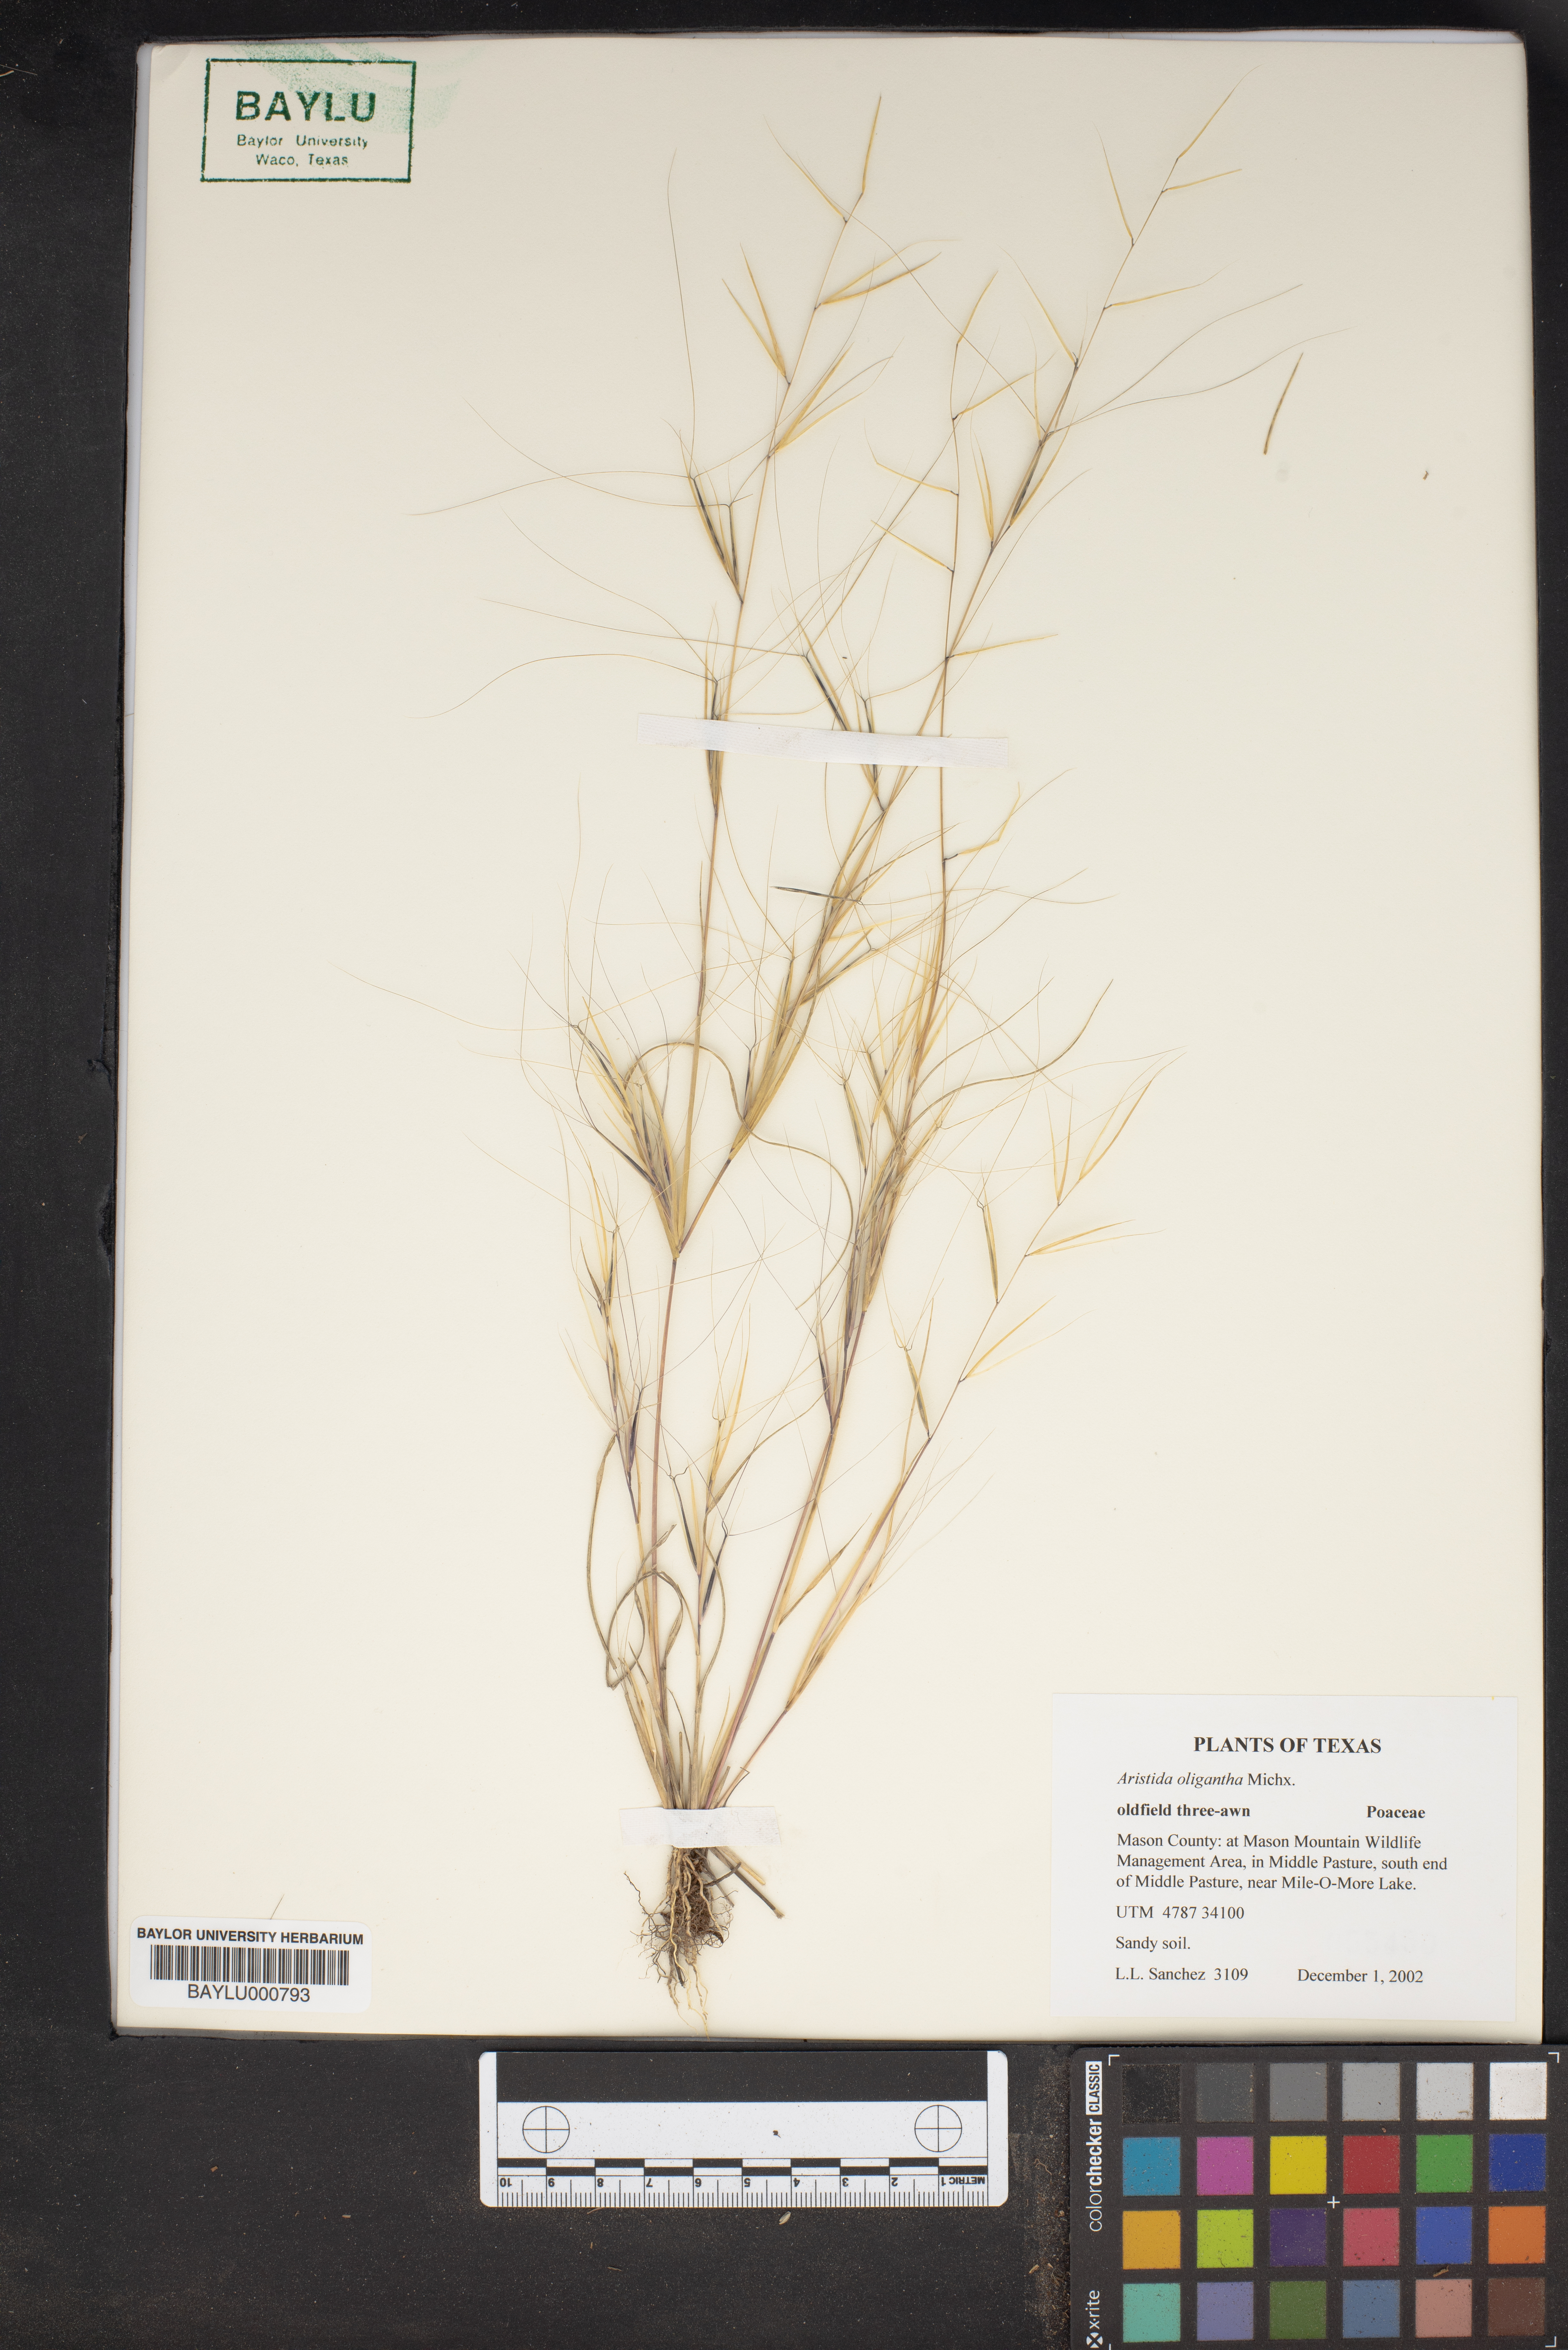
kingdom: Plantae
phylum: Tracheophyta
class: Liliopsida
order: Poales
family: Poaceae
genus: Aristida
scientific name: Aristida oligantha
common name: Few-flowered aristida
